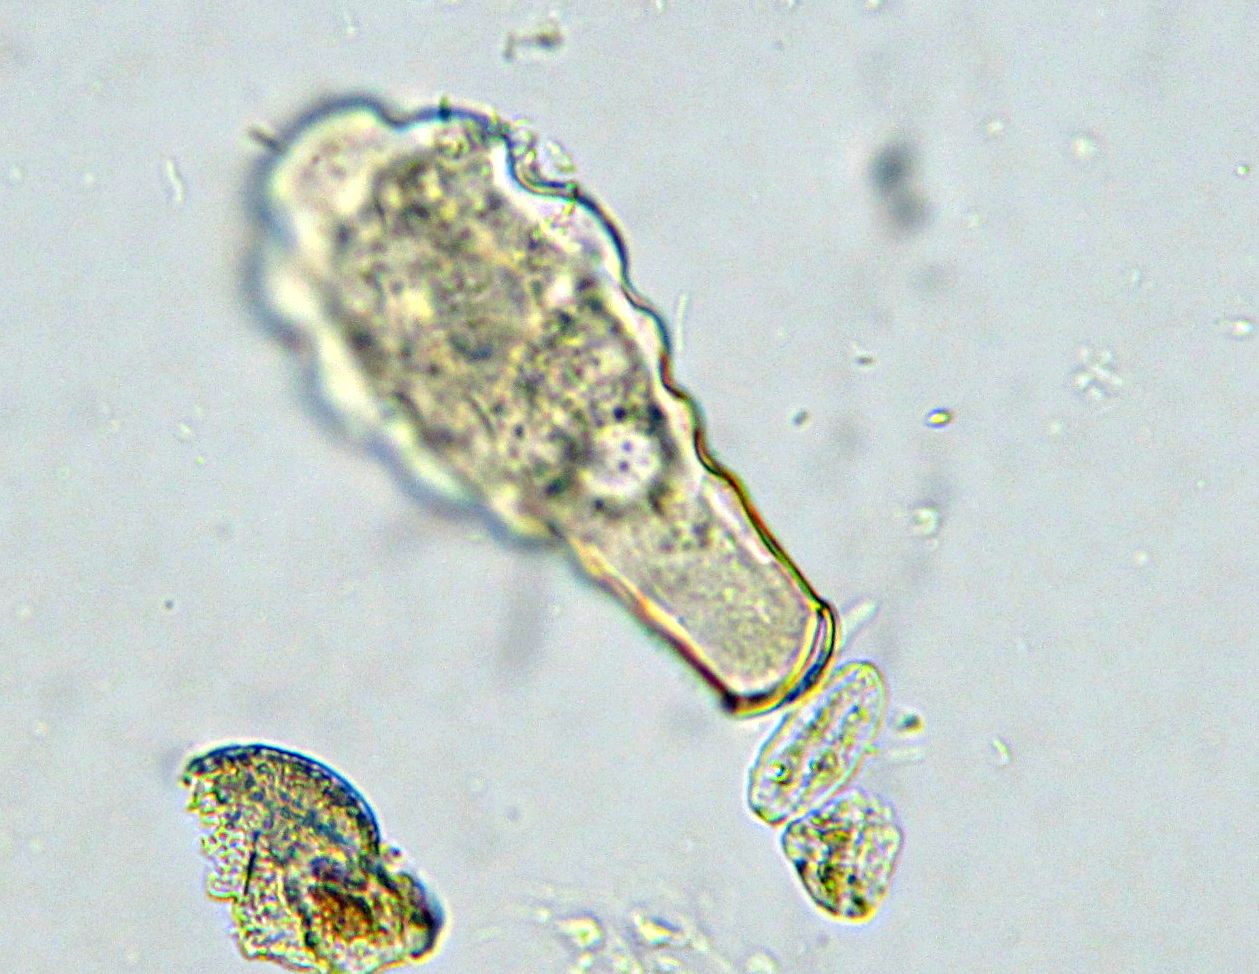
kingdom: Protozoa
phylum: Amoebozoa
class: Lobosa
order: Arcellinida
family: Hyalospheniidae
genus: Hyalosphenia
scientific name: Hyalosphenia elegans
